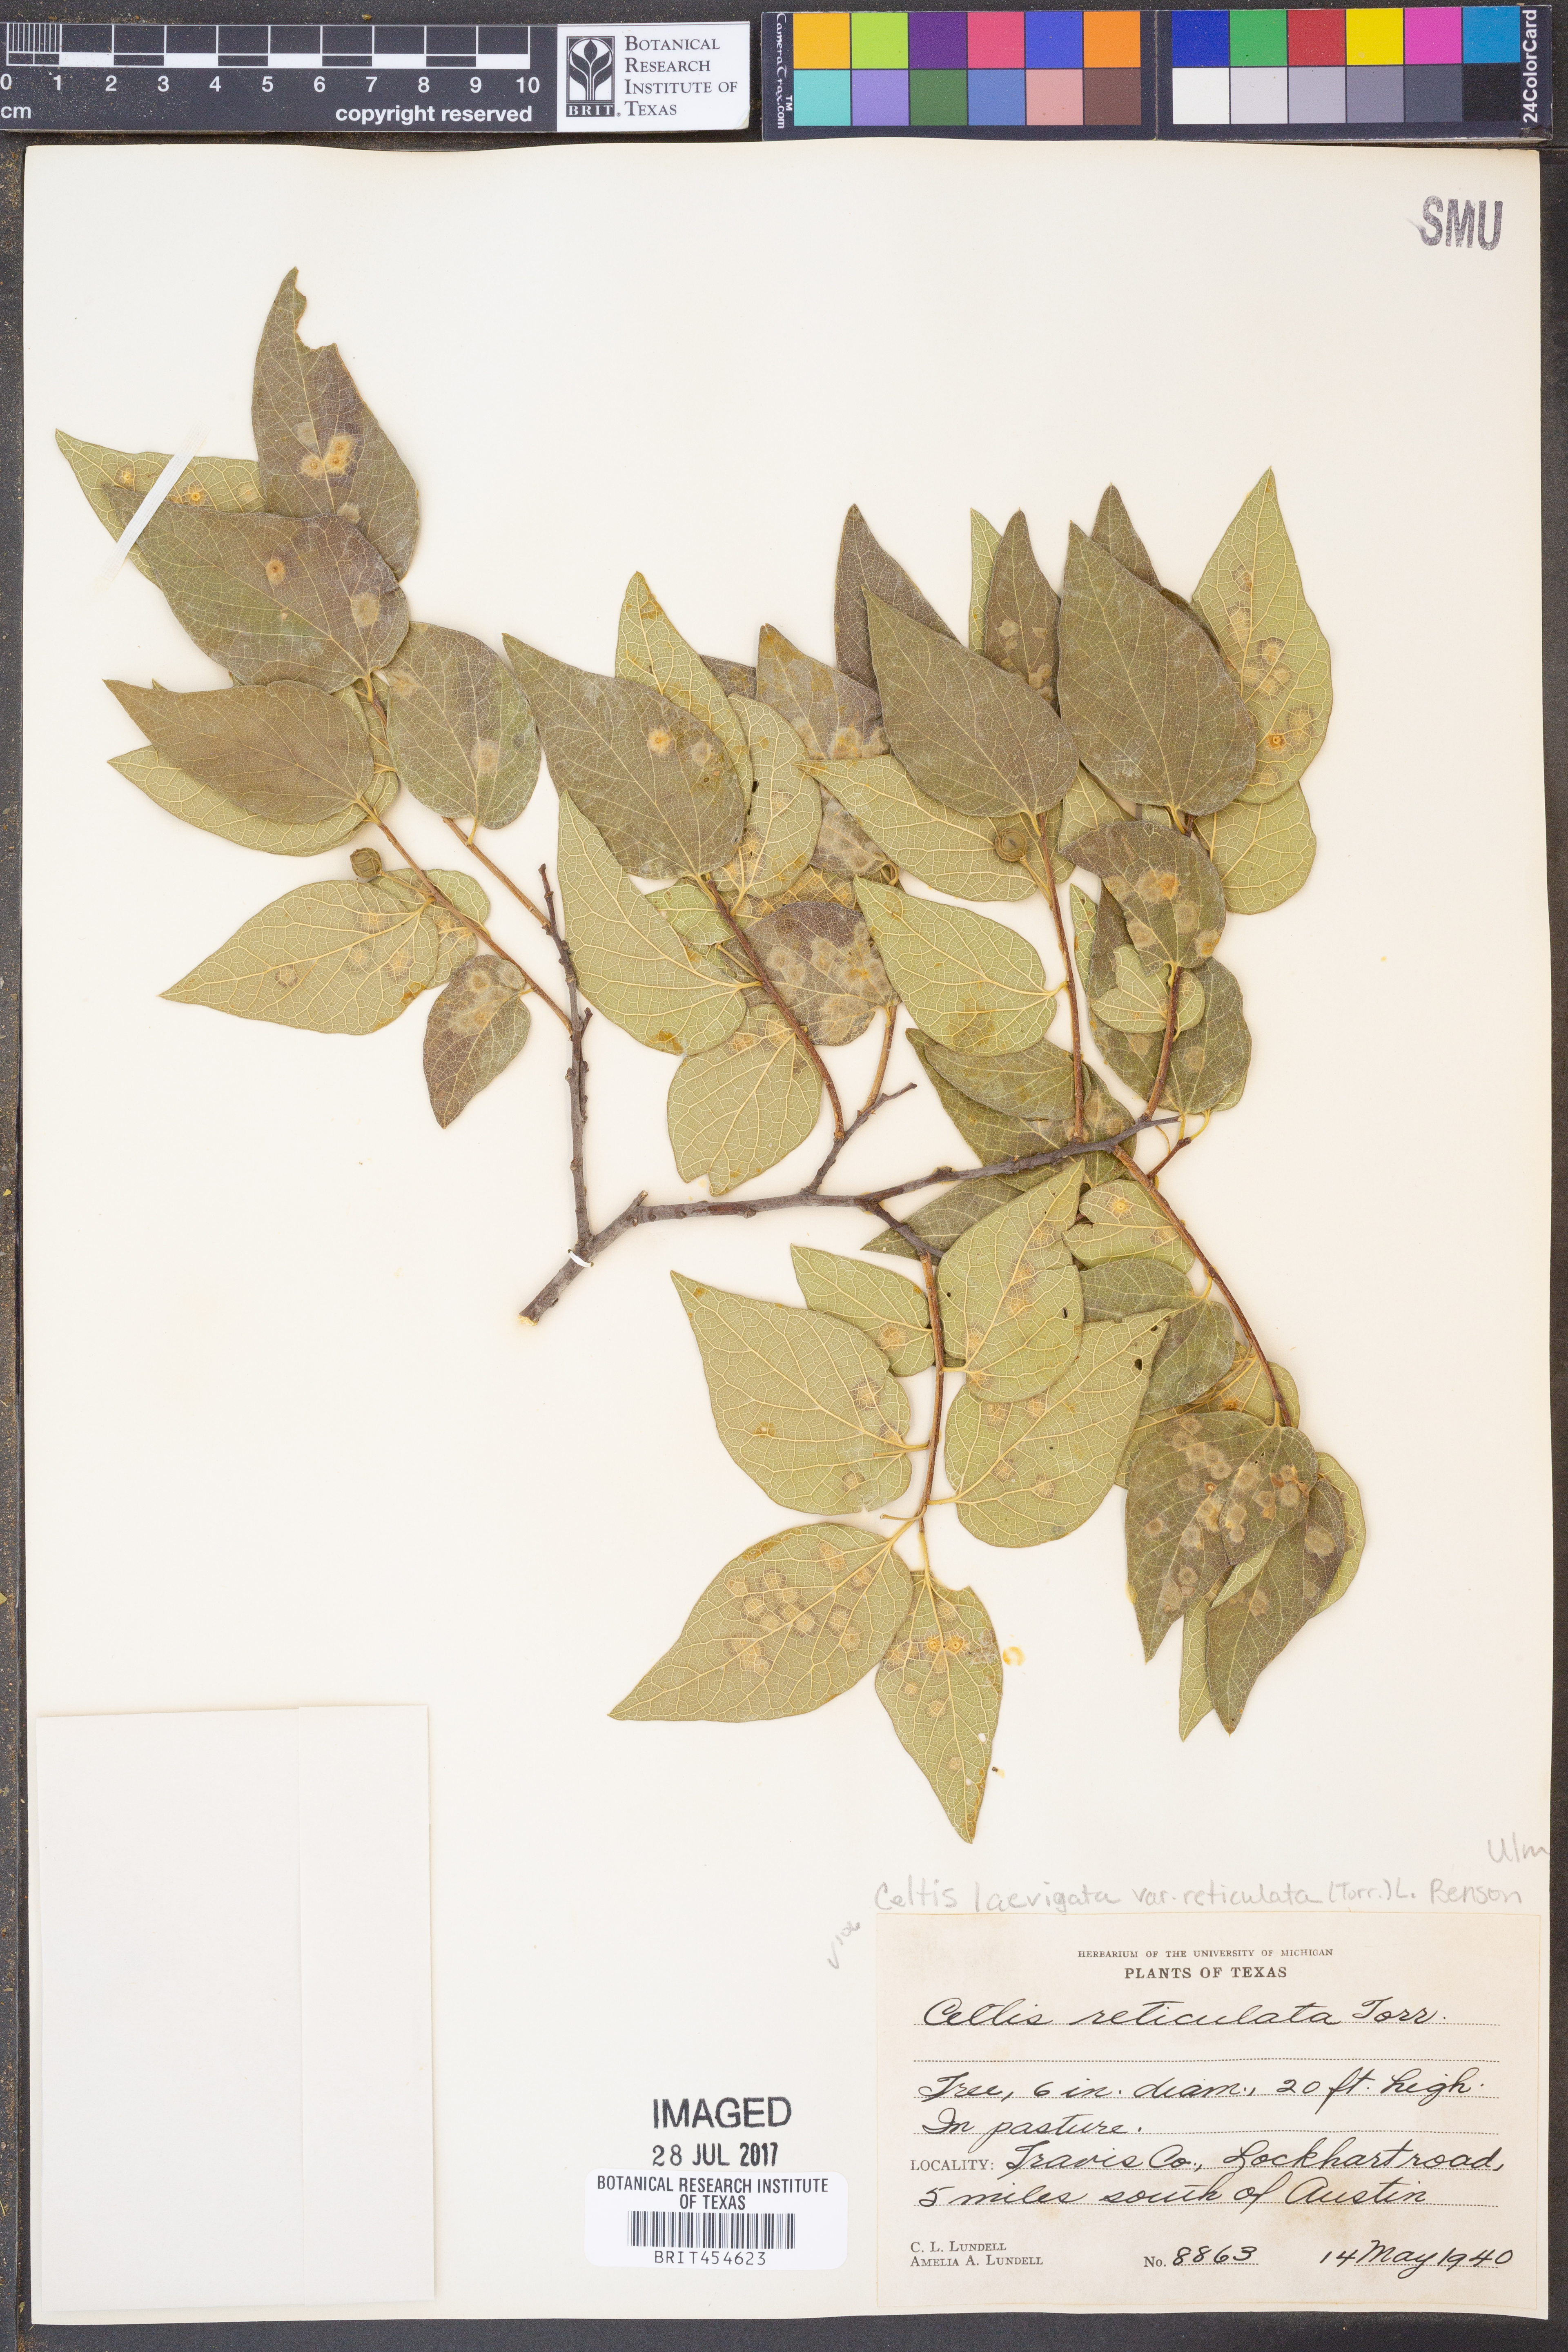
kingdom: Plantae
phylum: Tracheophyta
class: Magnoliopsida
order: Rosales
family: Cannabaceae
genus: Celtis
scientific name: Celtis reticulata
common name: Netleaf hackberry
